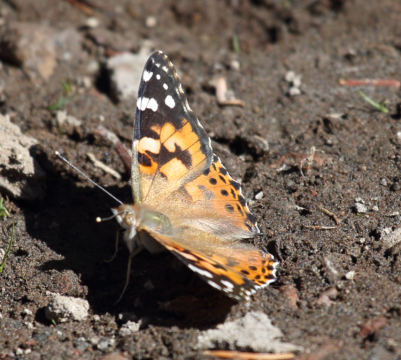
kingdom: Animalia
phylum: Arthropoda
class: Insecta
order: Lepidoptera
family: Nymphalidae
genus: Vanessa
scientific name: Vanessa cardui
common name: Painted Lady
